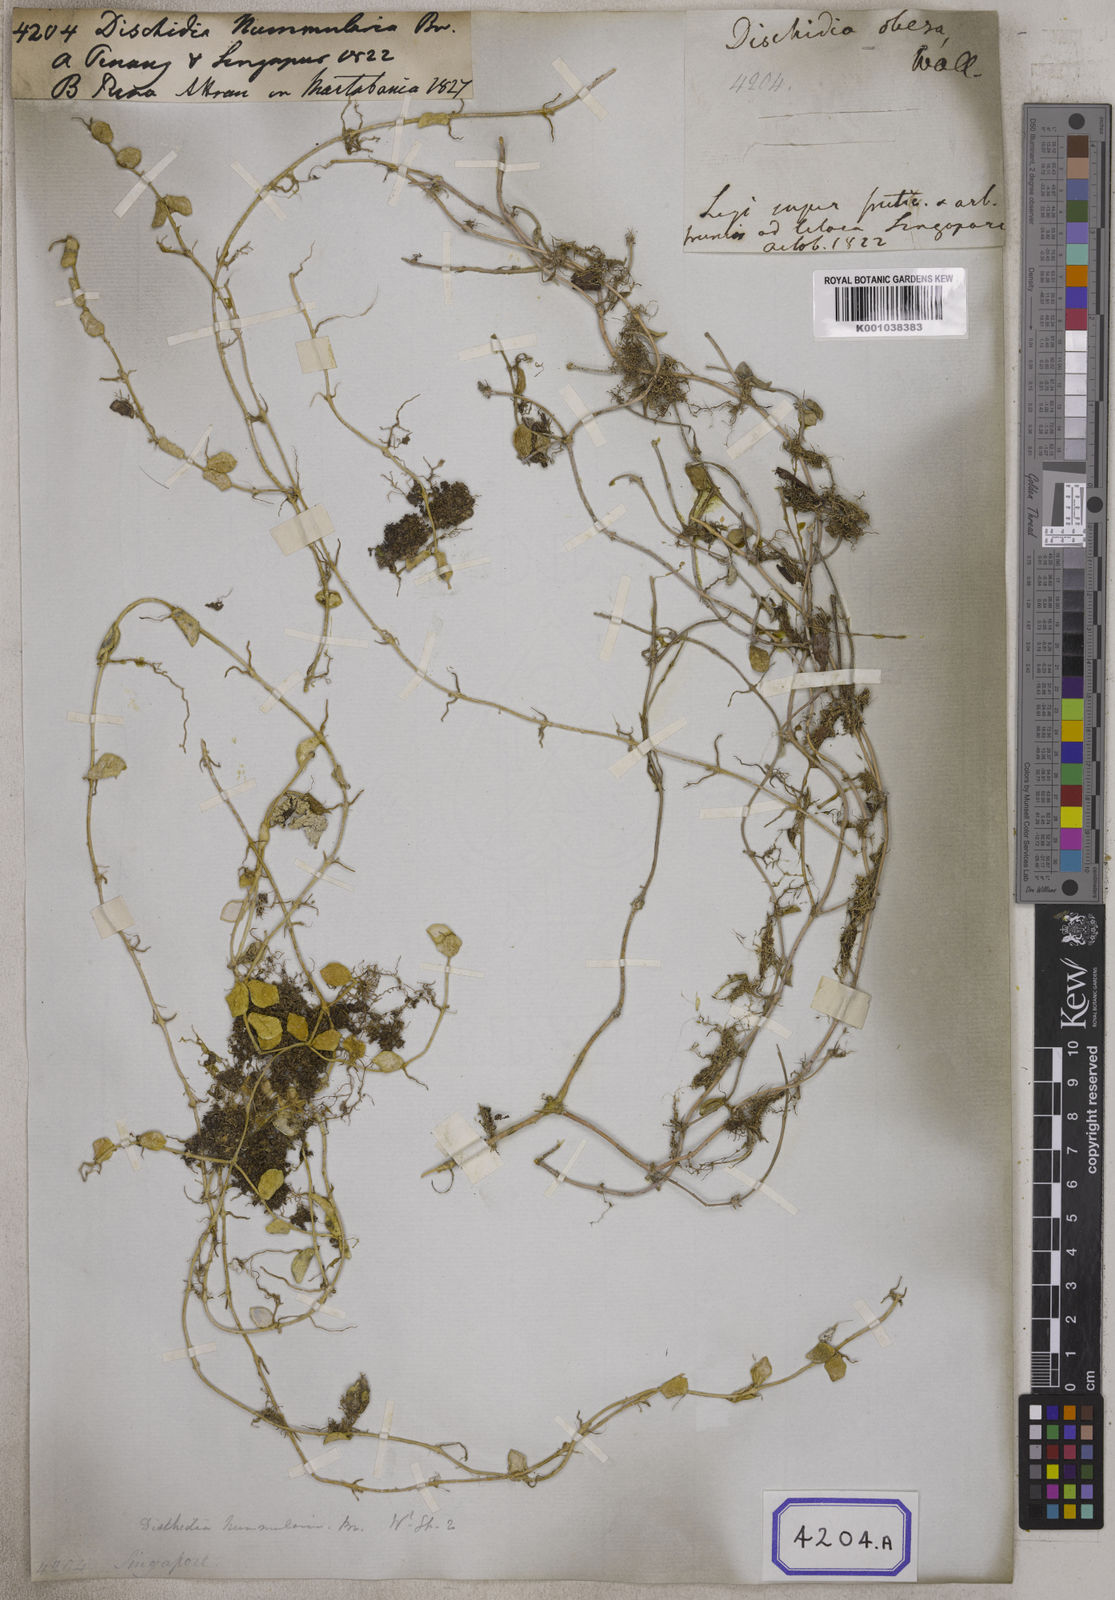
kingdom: Plantae
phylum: Tracheophyta
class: Magnoliopsida
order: Gentianales
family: Apocynaceae
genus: Dischidia
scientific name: Dischidia nummularia
